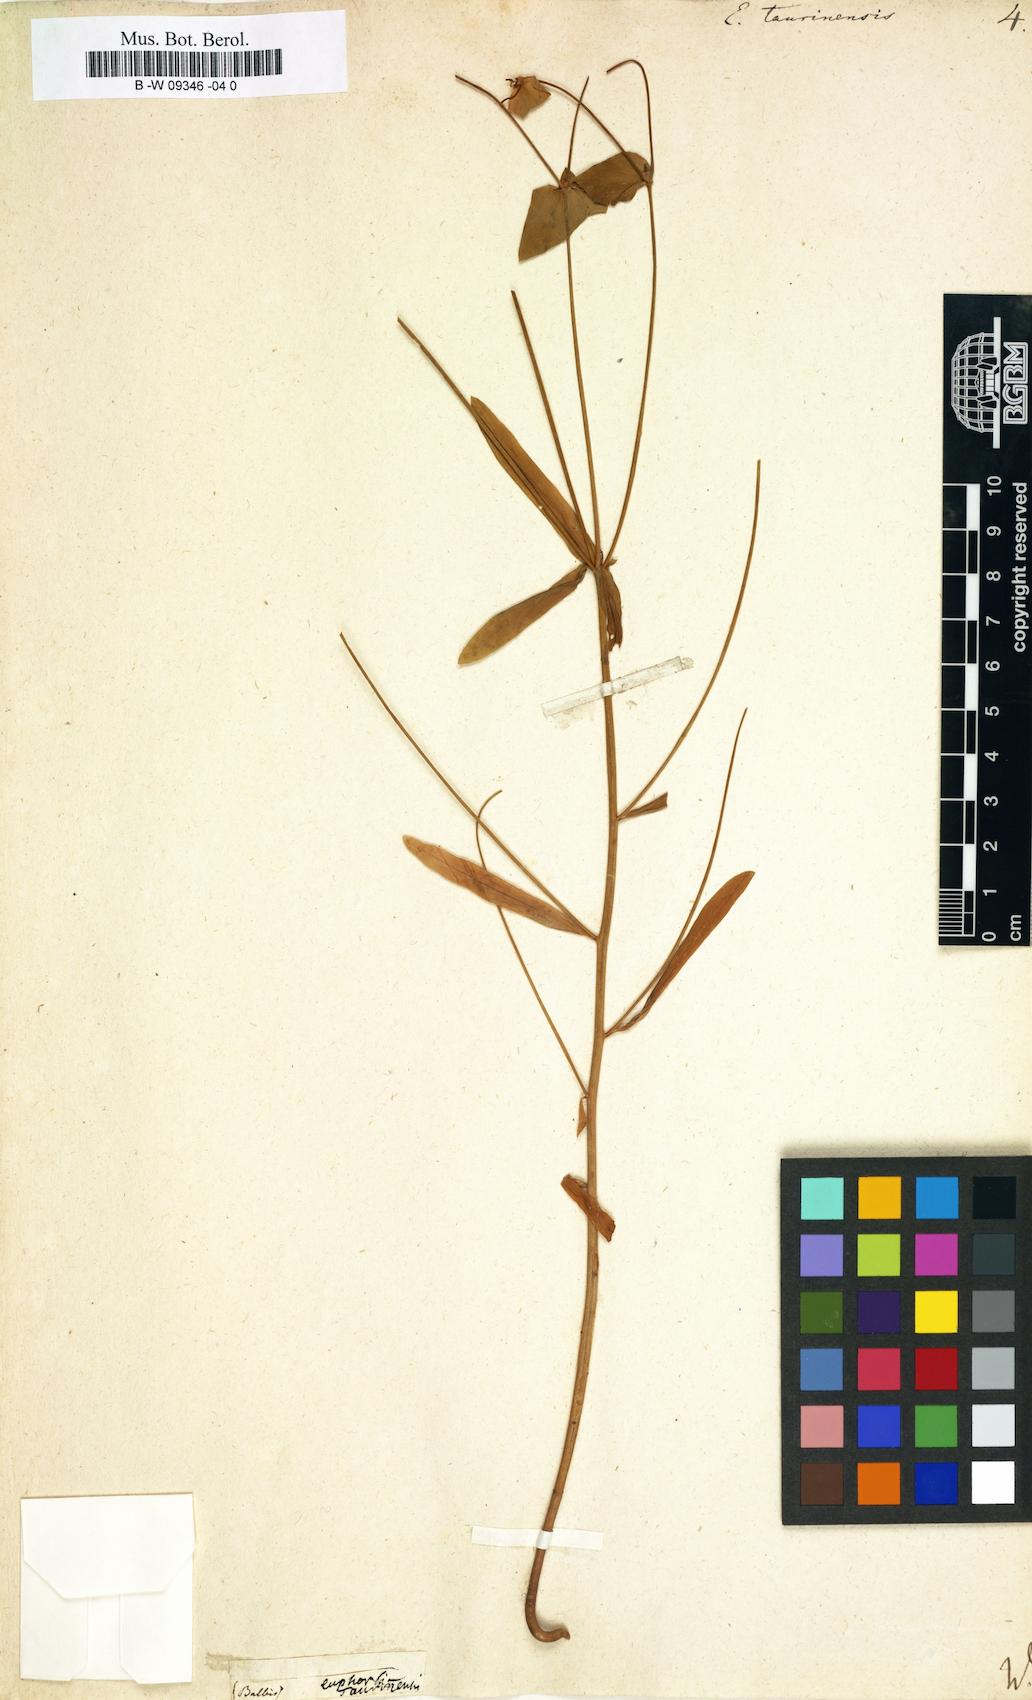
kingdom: Plantae
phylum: Tracheophyta
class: Magnoliopsida
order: Malpighiales
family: Euphorbiaceae
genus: Euphorbia
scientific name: Euphorbia taurinensis
